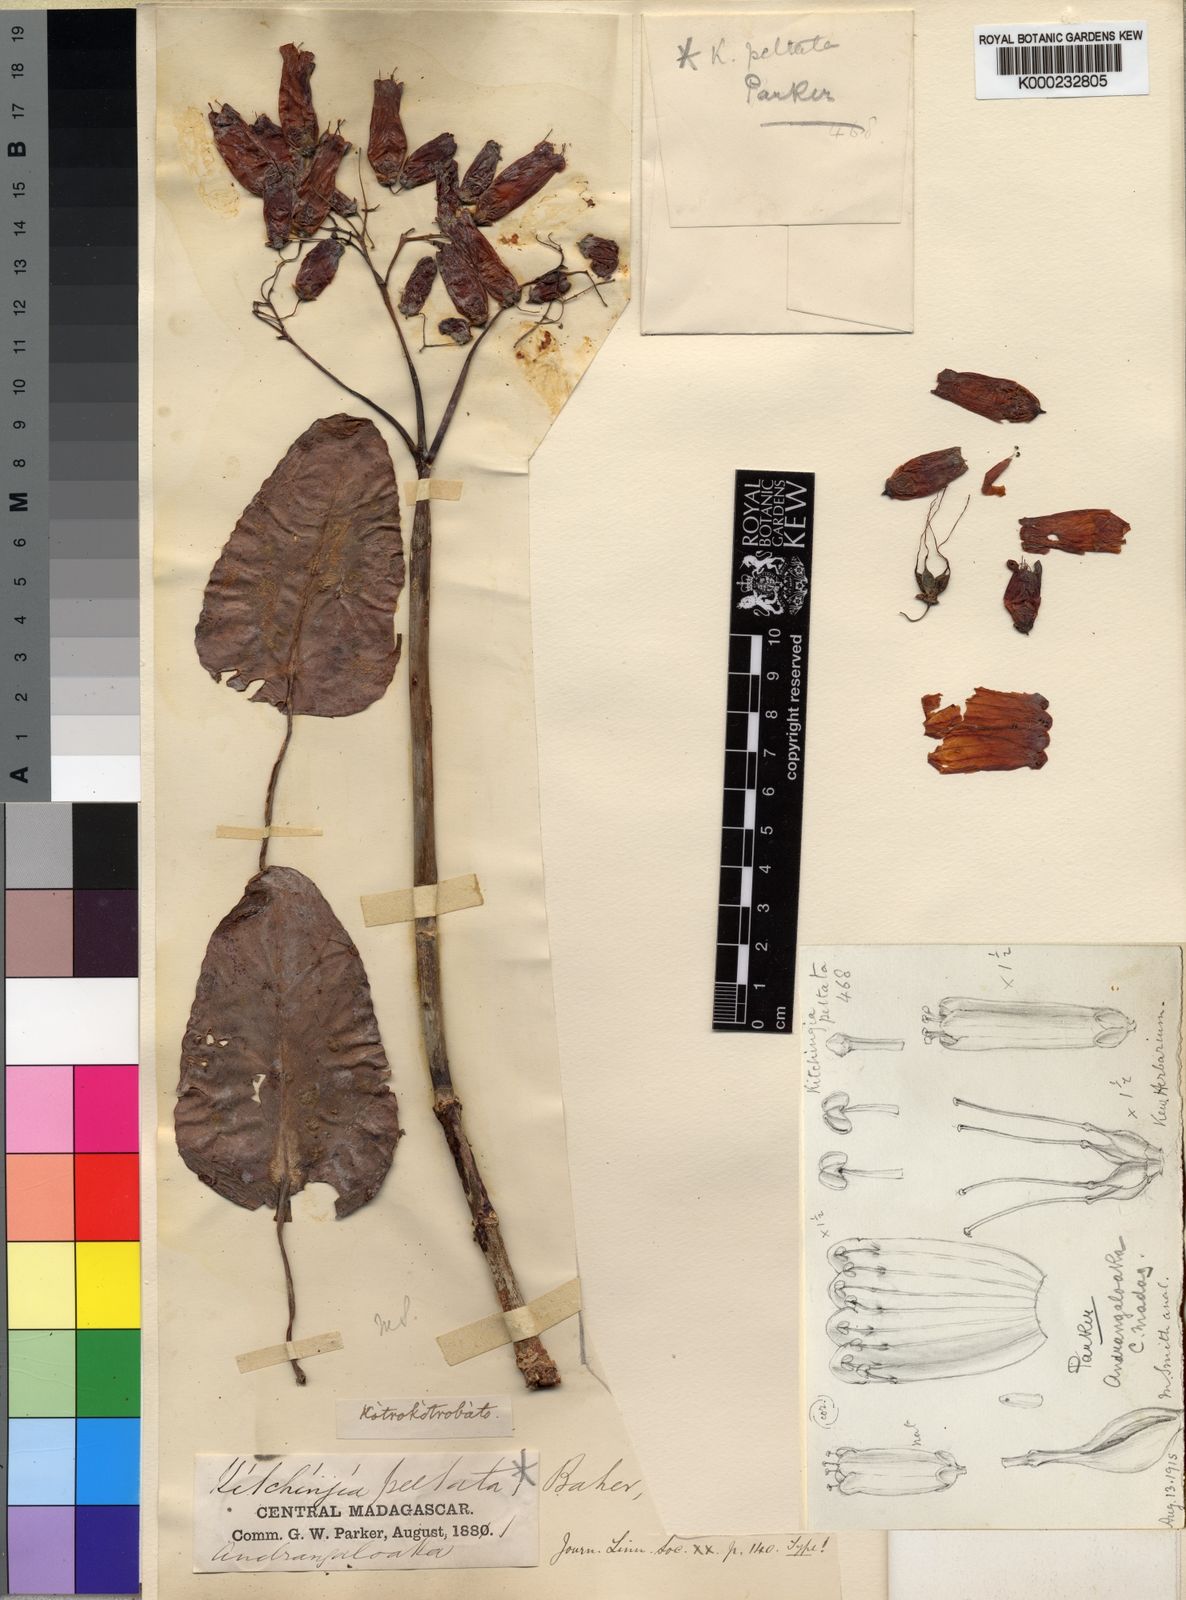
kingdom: Plantae
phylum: Tracheophyta
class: Magnoliopsida
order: Saxifragales
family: Crassulaceae
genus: Kalanchoe
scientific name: Kalanchoe peltata
